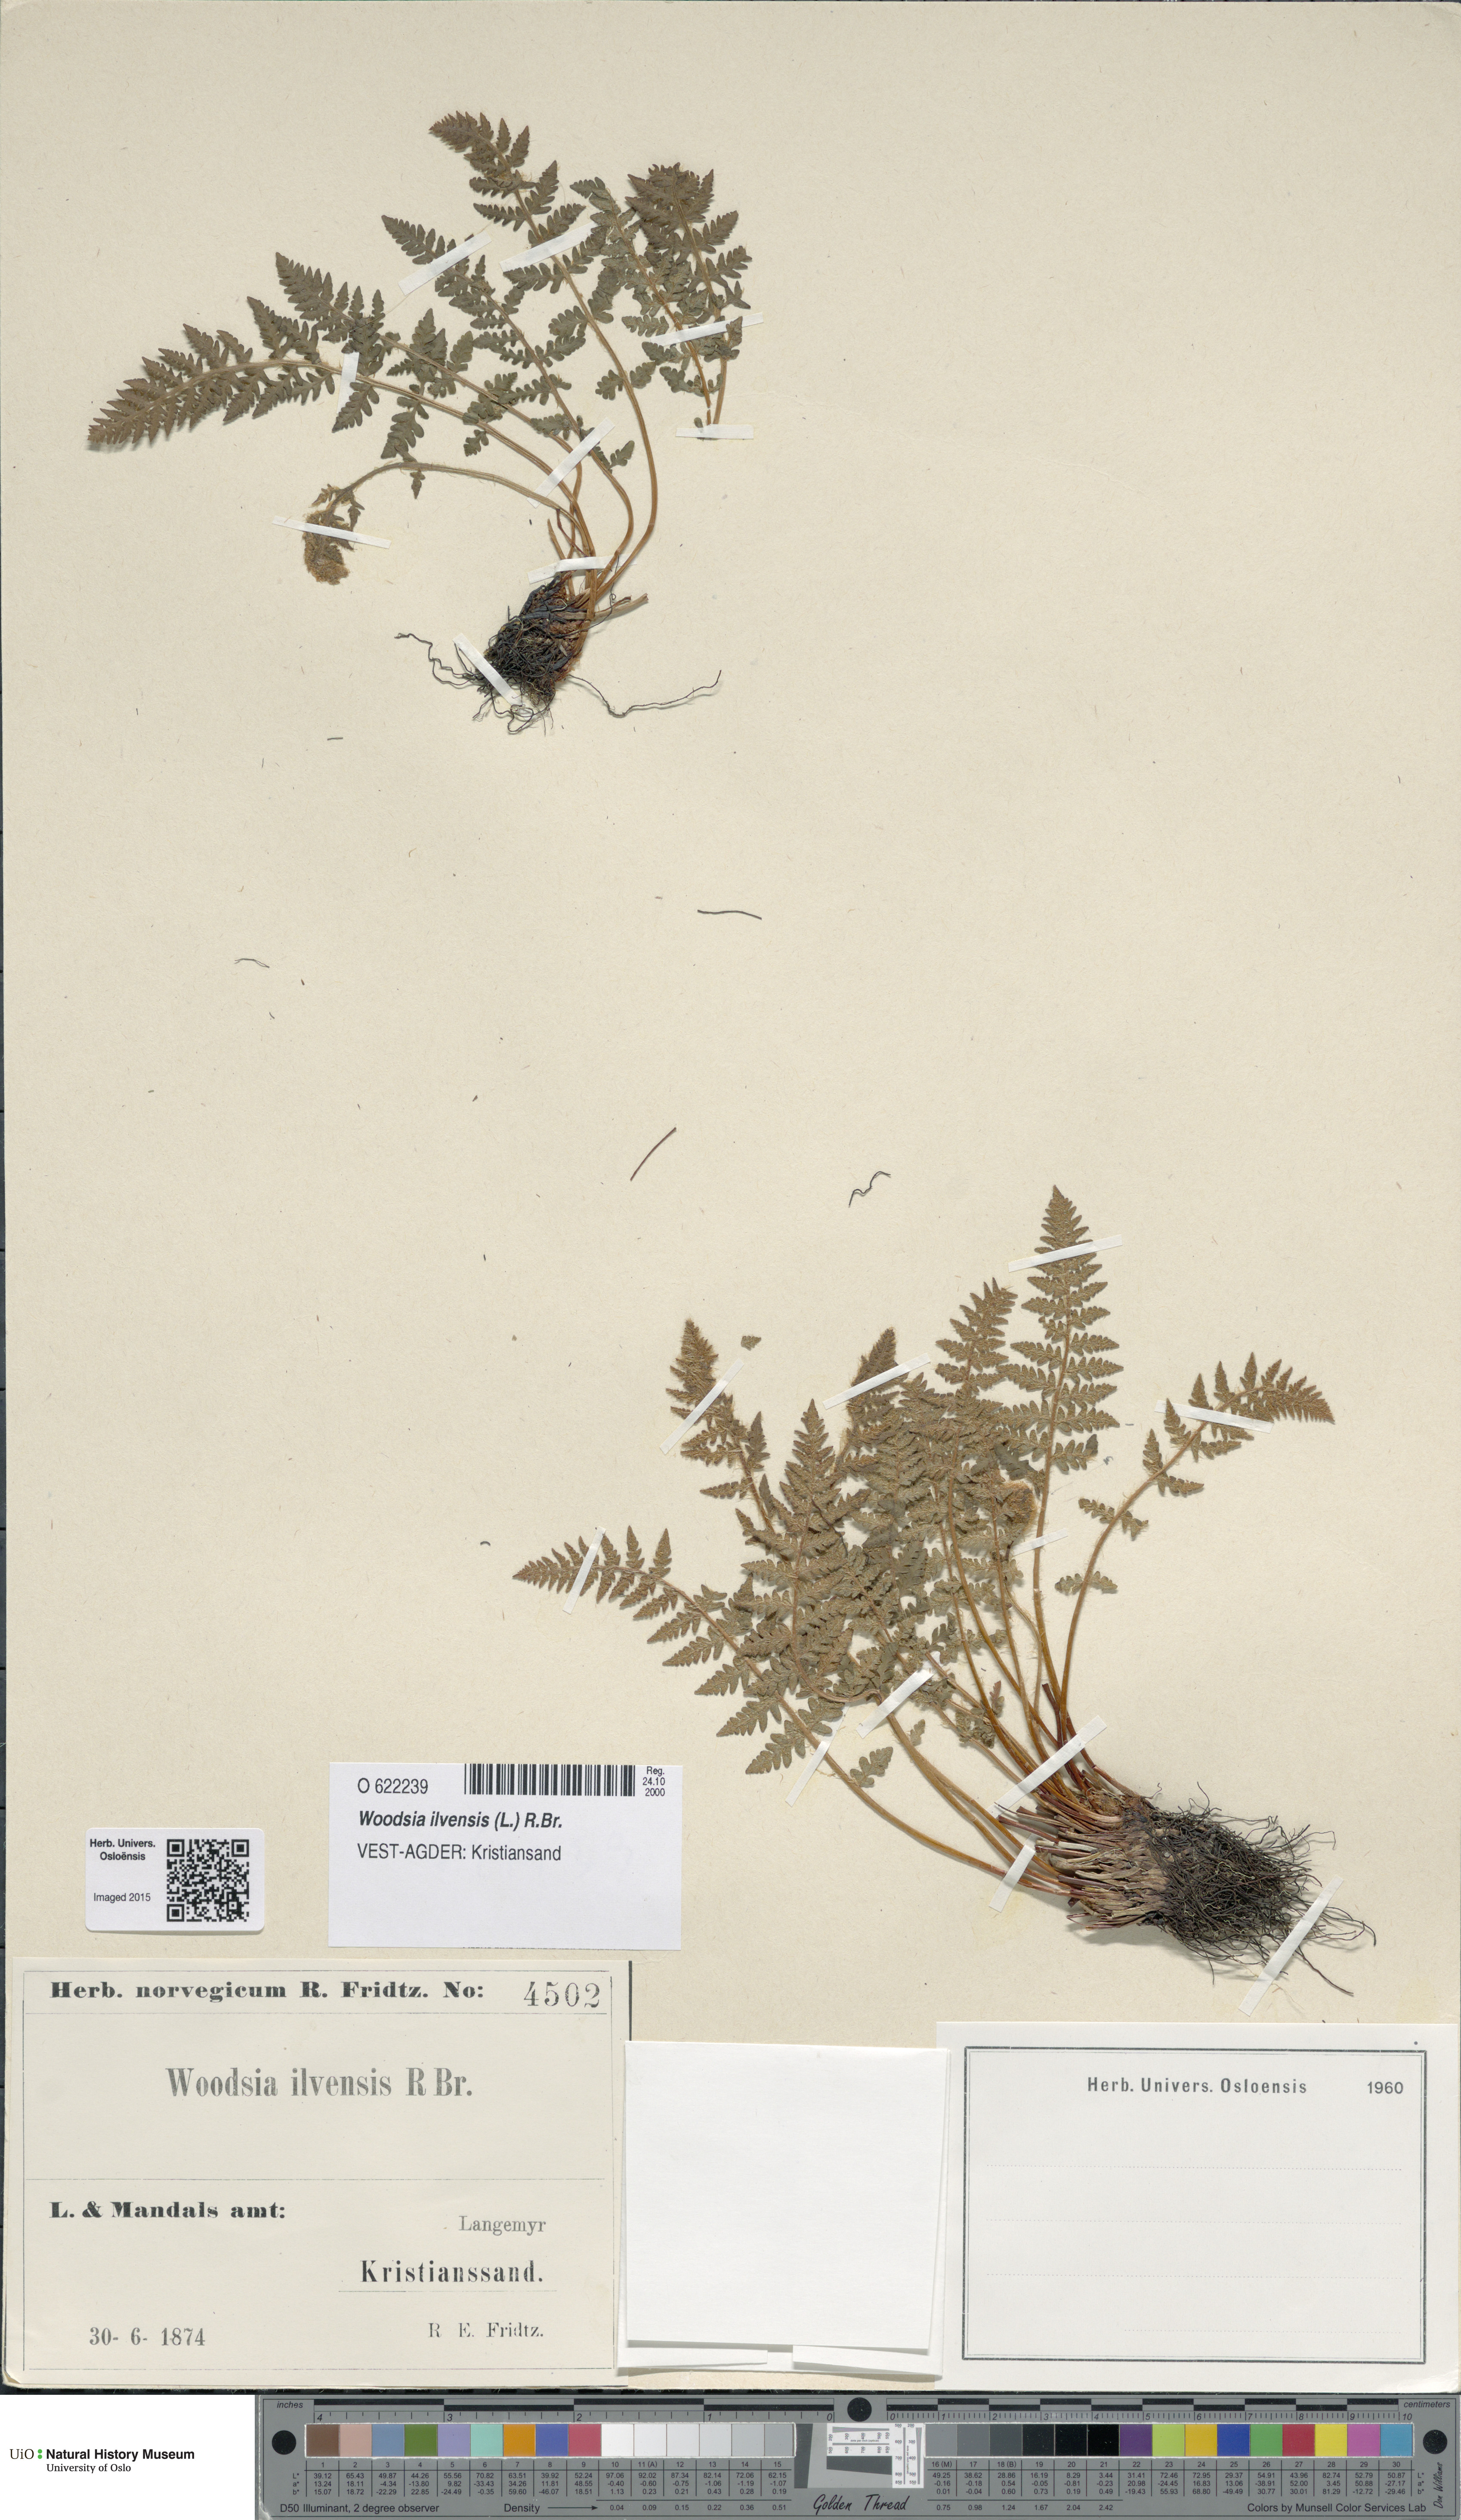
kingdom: Plantae
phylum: Tracheophyta
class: Polypodiopsida
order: Polypodiales
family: Woodsiaceae
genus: Woodsia
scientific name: Woodsia ilvensis
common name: Fragrant woodsia
